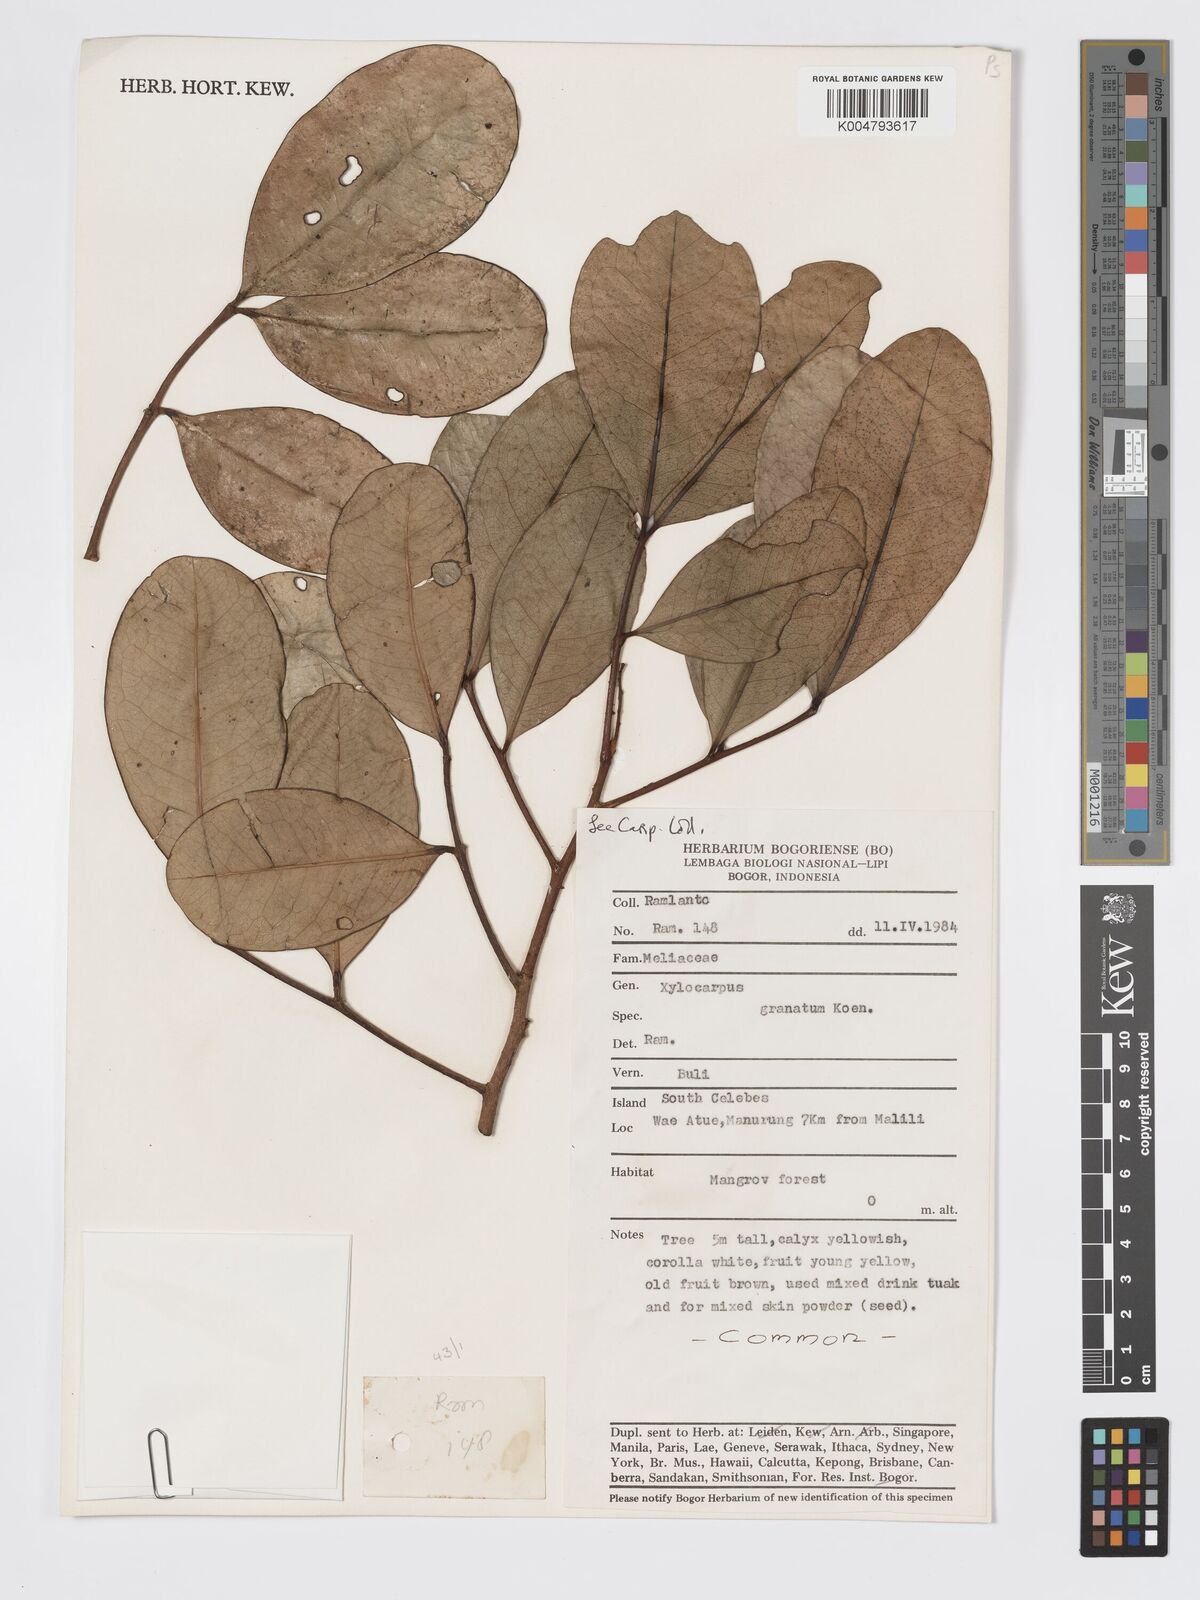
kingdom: Plantae
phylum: Tracheophyta
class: Magnoliopsida
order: Sapindales
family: Meliaceae
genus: Xylocarpus
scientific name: Xylocarpus granatum
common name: Apple mangrove
